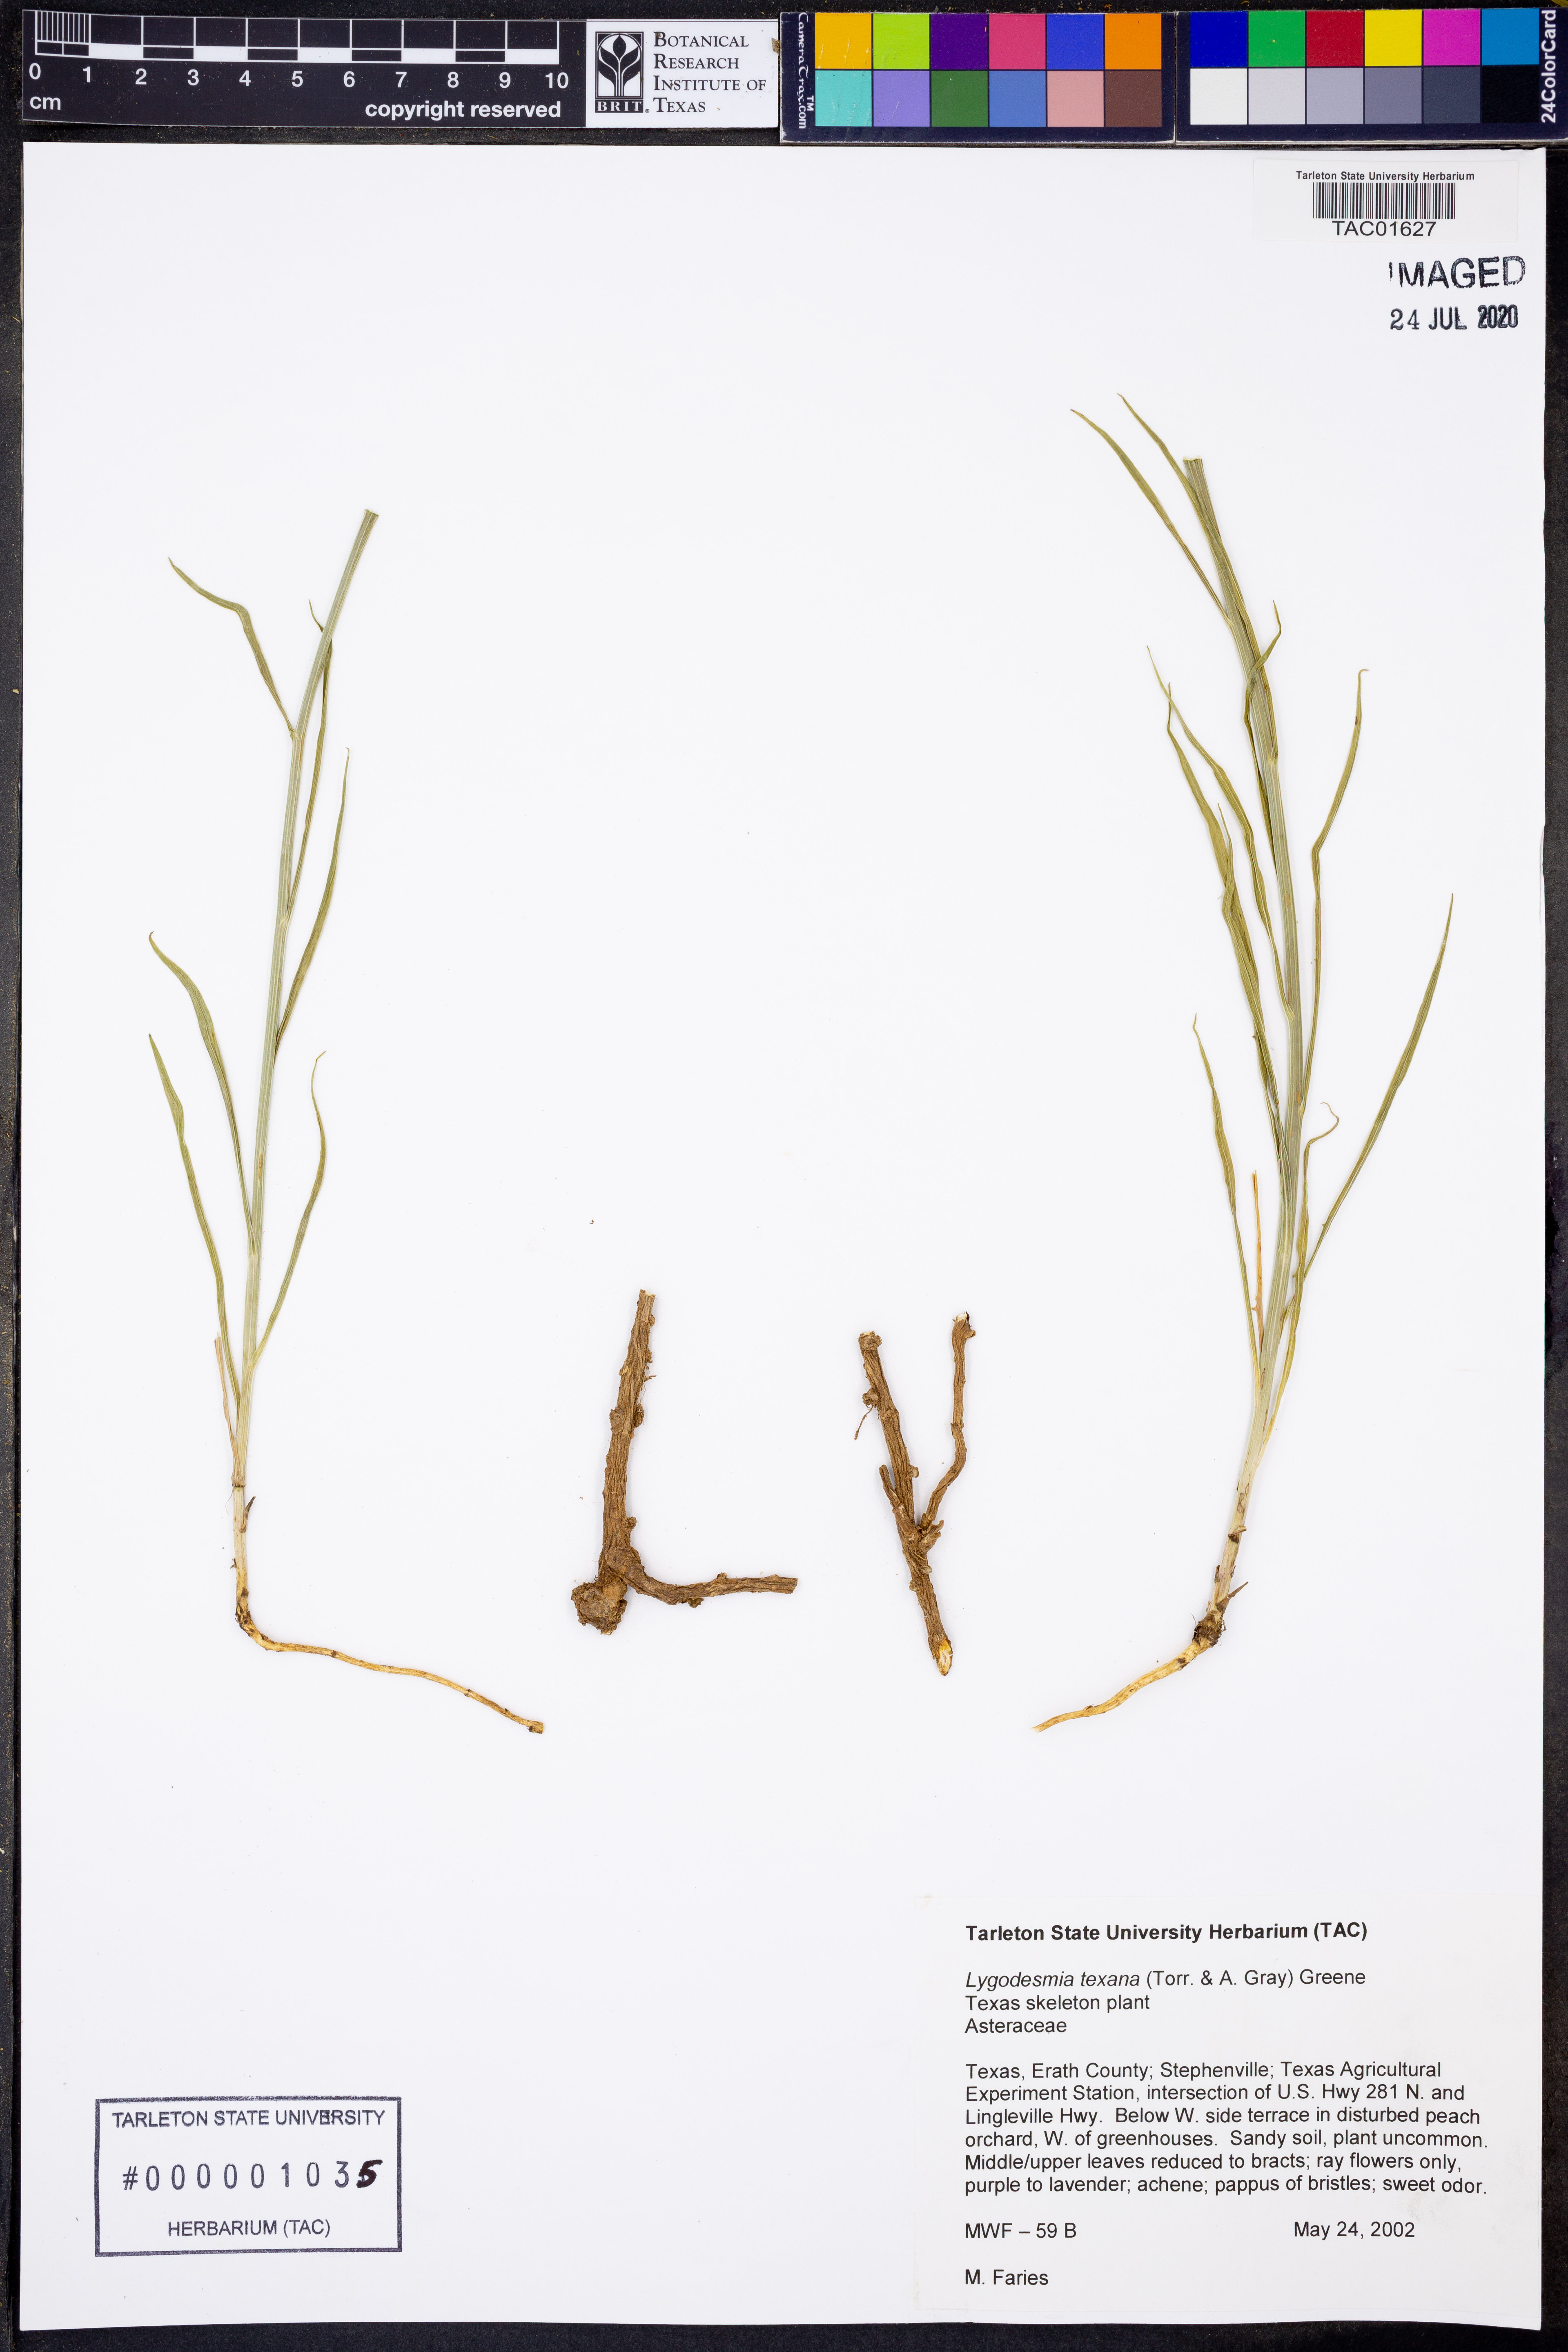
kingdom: Plantae
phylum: Tracheophyta
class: Magnoliopsida
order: Asterales
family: Asteraceae
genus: Lygodesmia
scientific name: Lygodesmia texana
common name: Texas skeleton-plant
